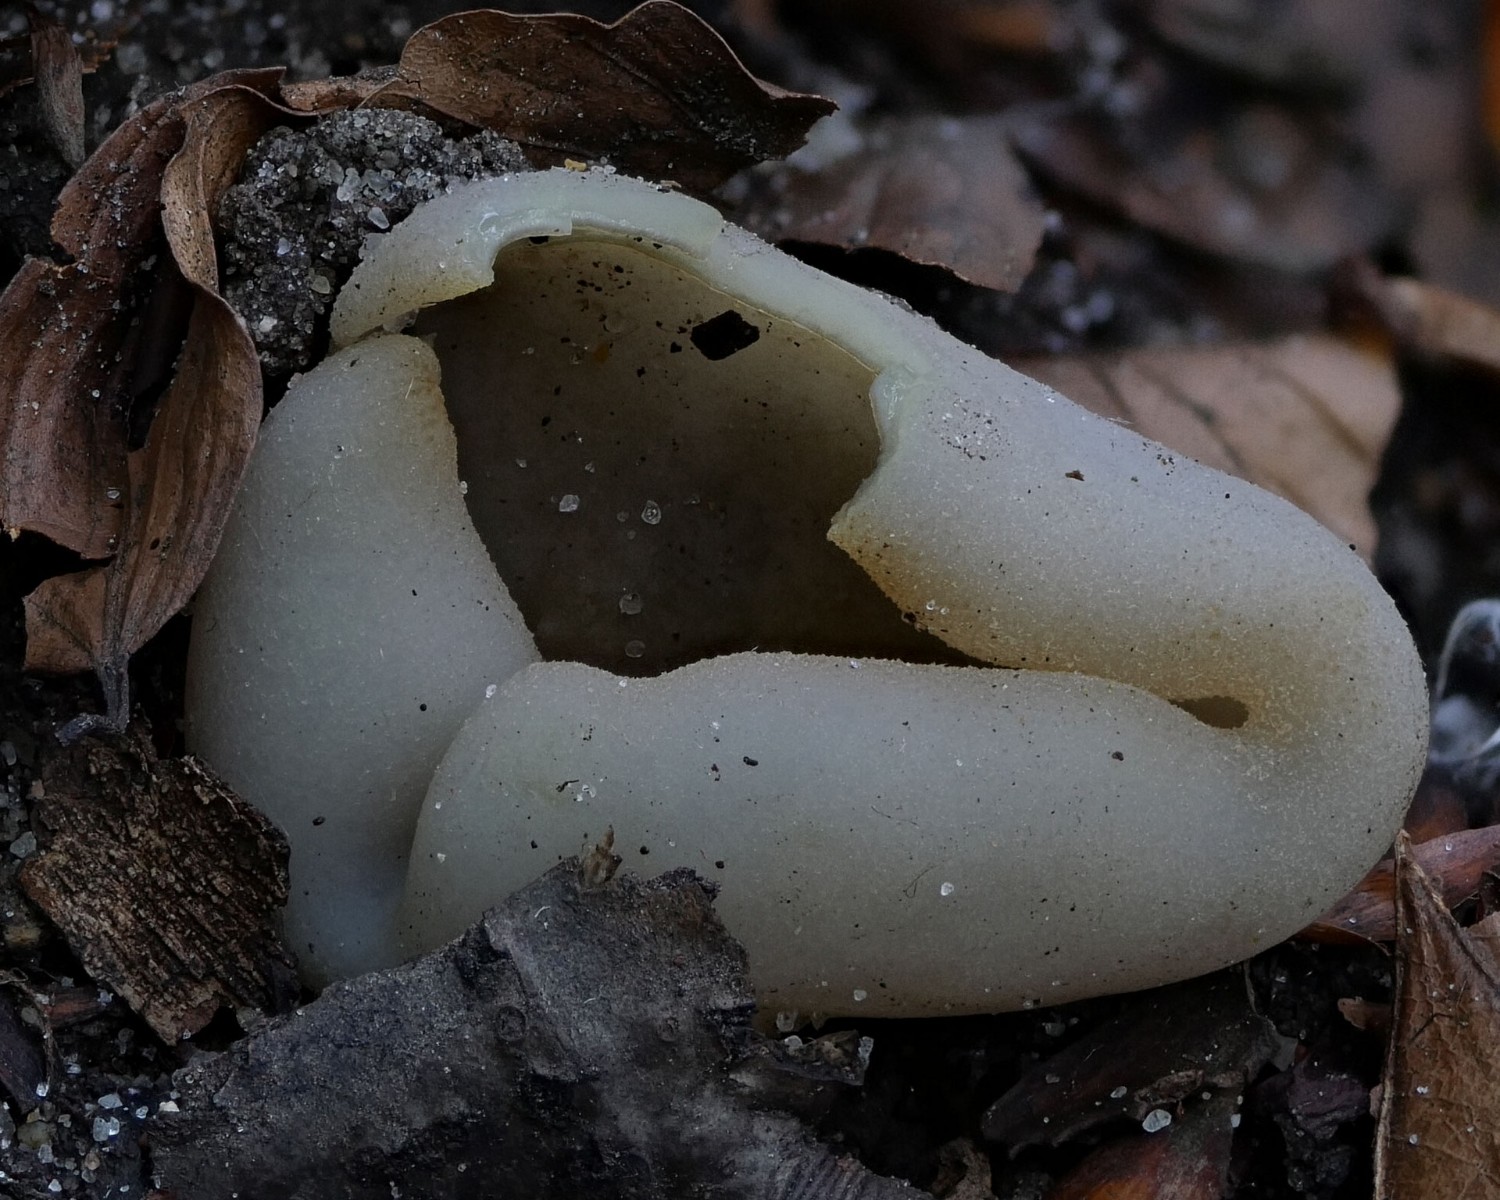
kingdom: Fungi
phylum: Ascomycota
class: Pezizomycetes
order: Pezizales
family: Pezizaceae
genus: Paragalactinia
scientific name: Paragalactinia succosa
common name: gulmælket bægersvamp
